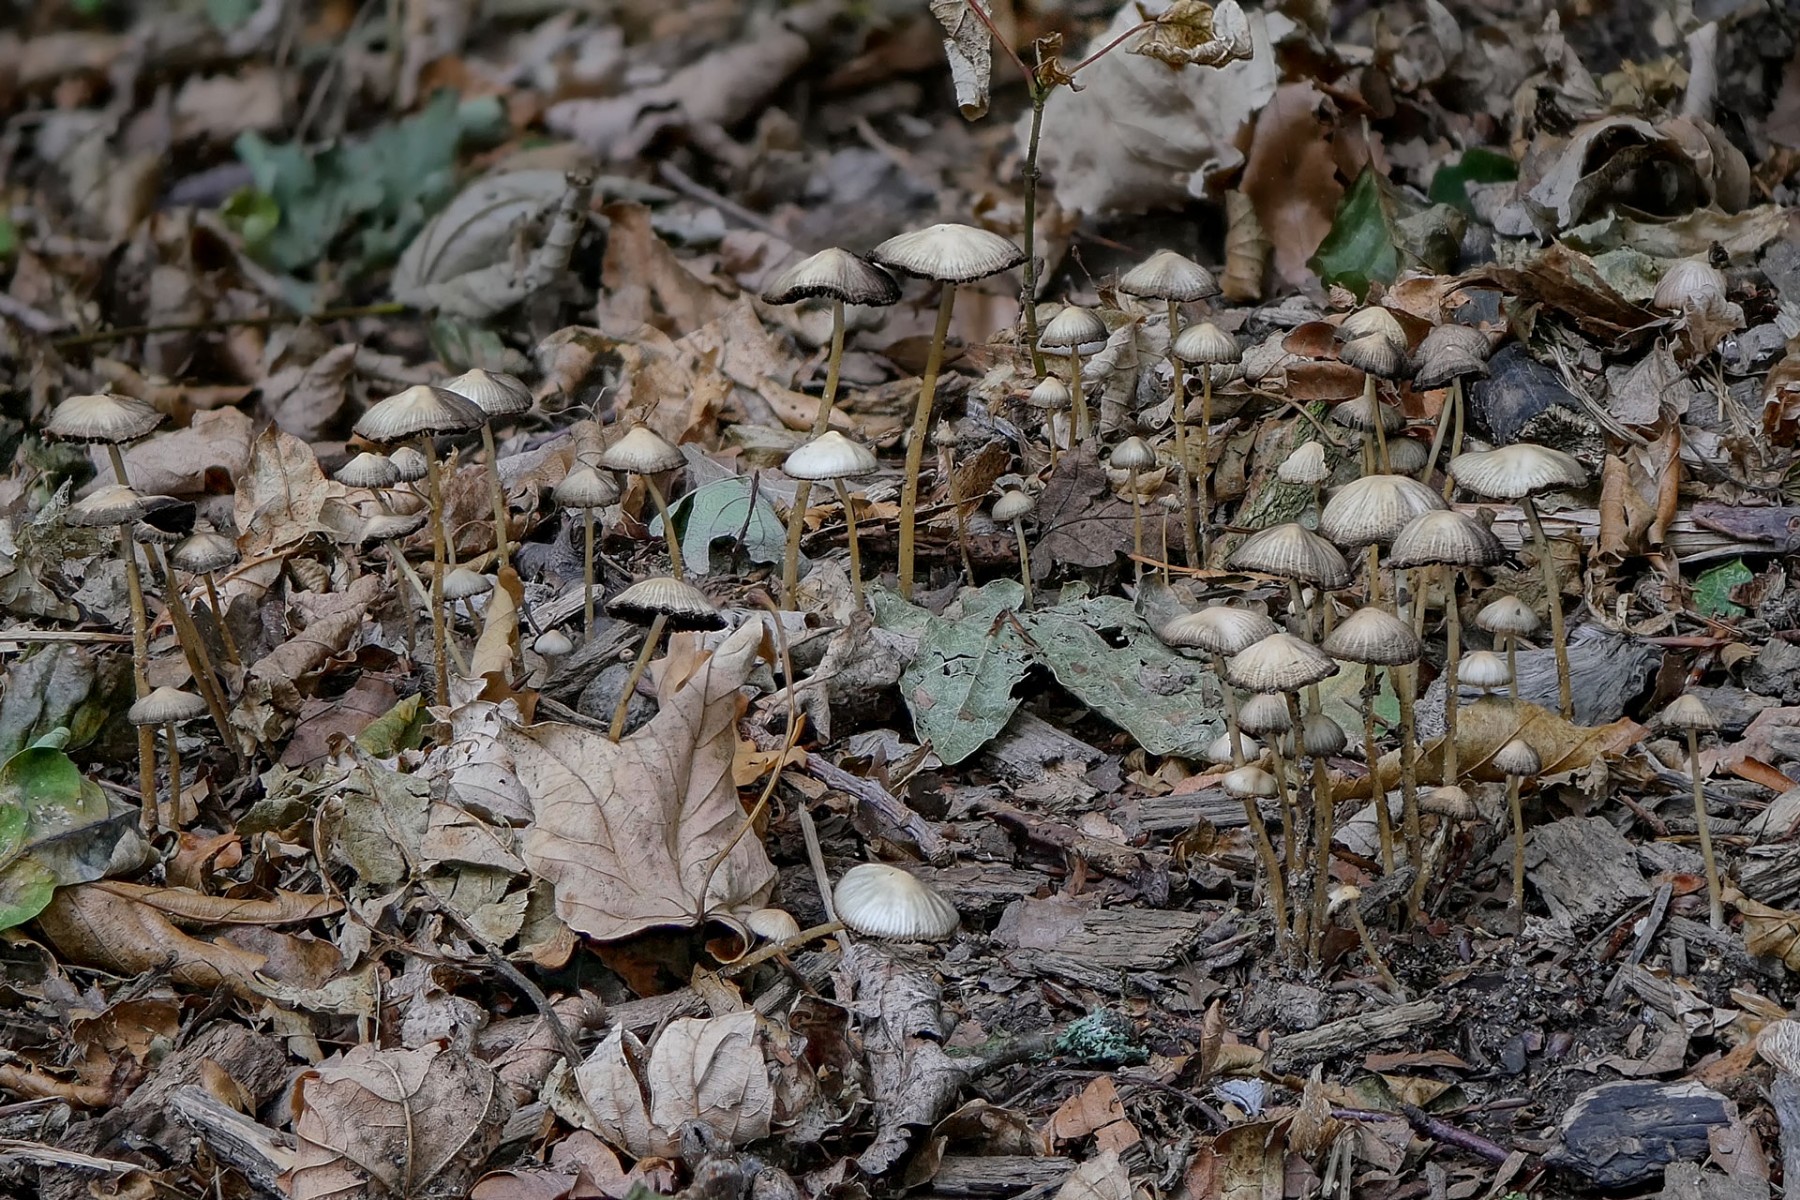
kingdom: Fungi
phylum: Basidiomycota
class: Agaricomycetes
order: Agaricales
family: Psathyrellaceae
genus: Psathyrella
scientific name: Psathyrella
